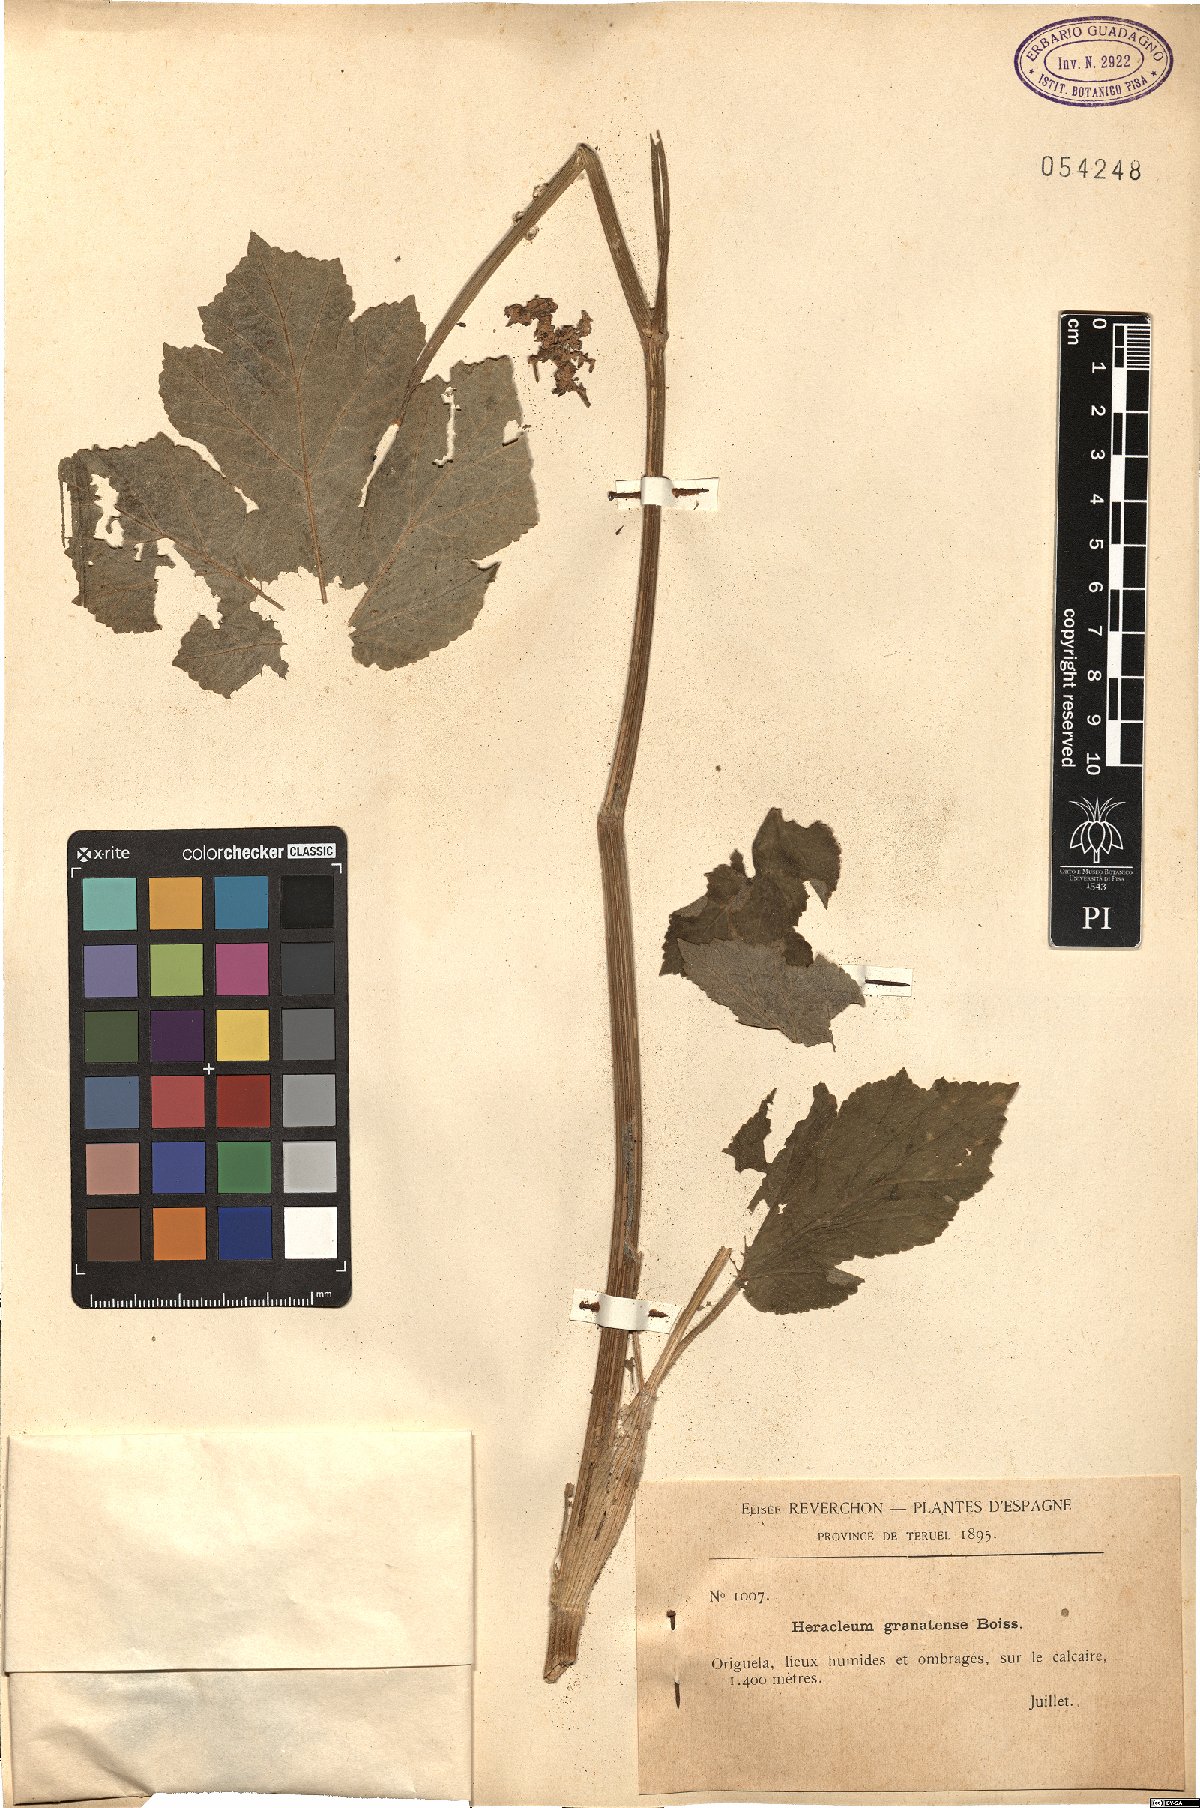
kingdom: Plantae
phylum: Tracheophyta
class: Magnoliopsida
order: Apiales
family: Apiaceae
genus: Heracleum
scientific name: Heracleum sphondylium
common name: Hogweed
